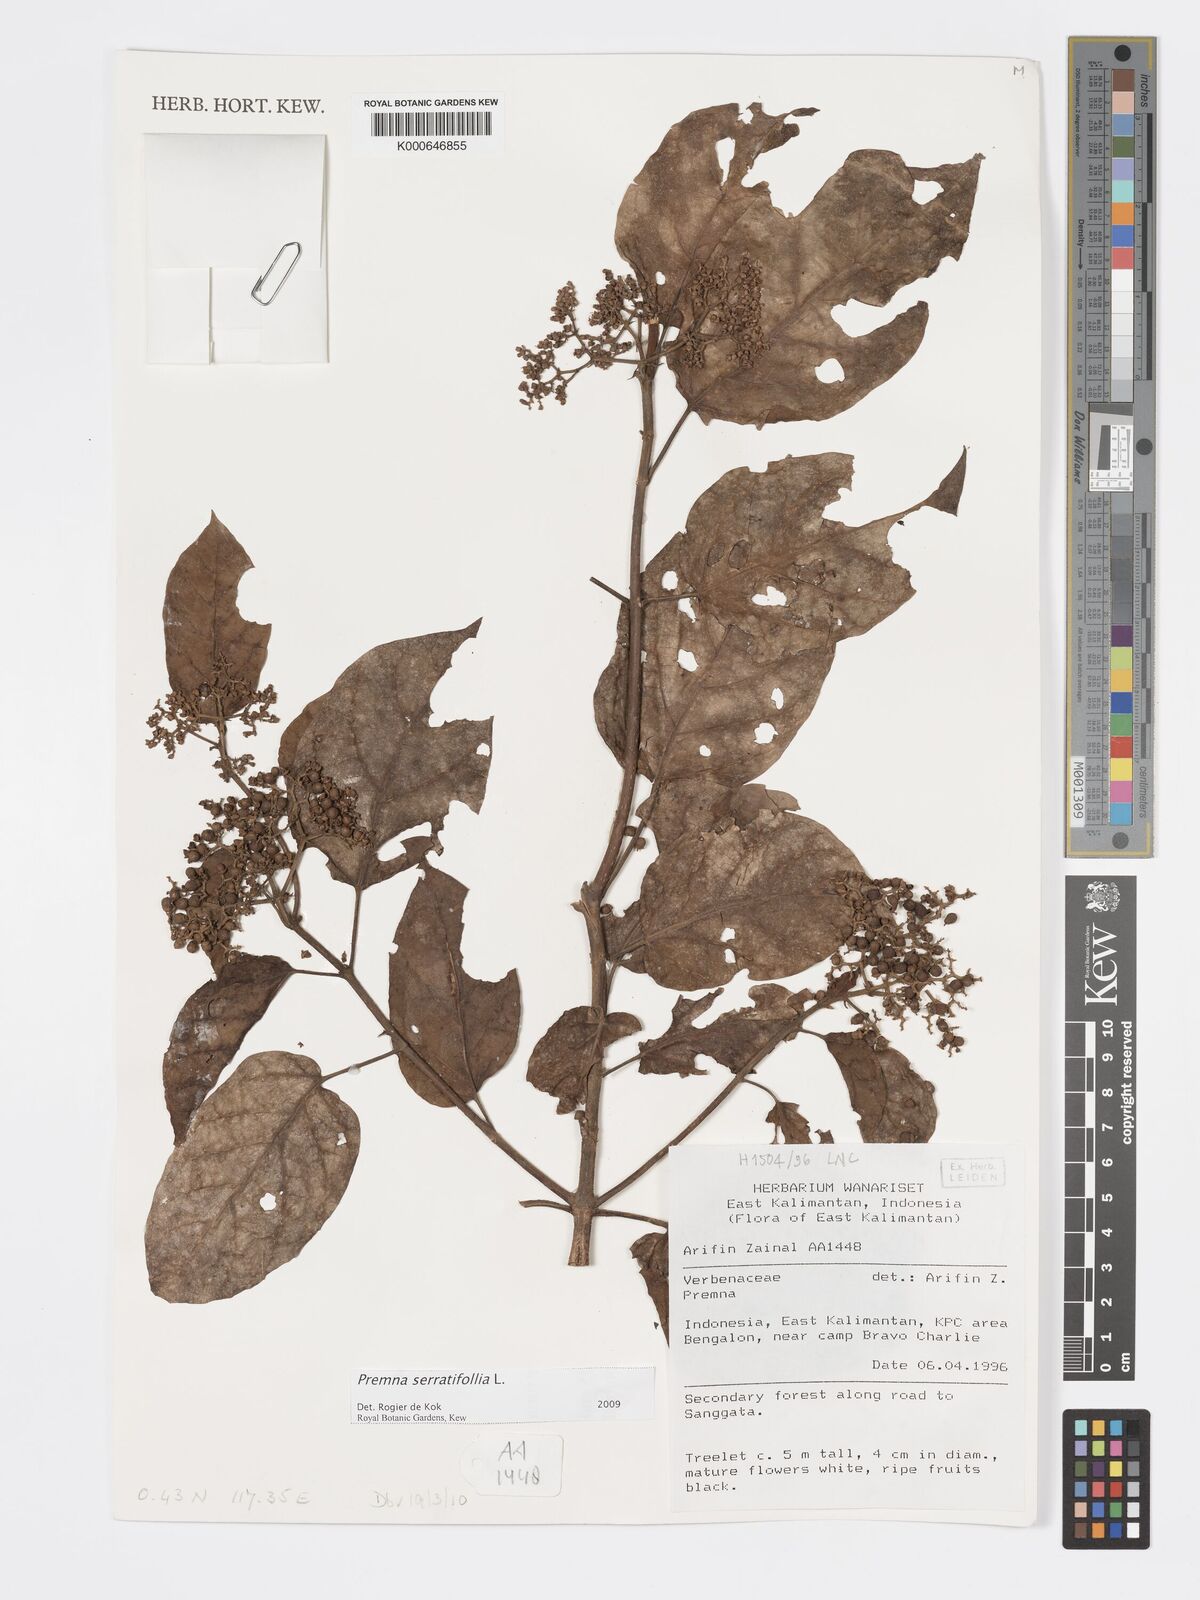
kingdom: Plantae
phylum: Tracheophyta
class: Magnoliopsida
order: Lamiales
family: Lamiaceae
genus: Premna
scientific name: Premna serratifolia
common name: Bastard guelder
